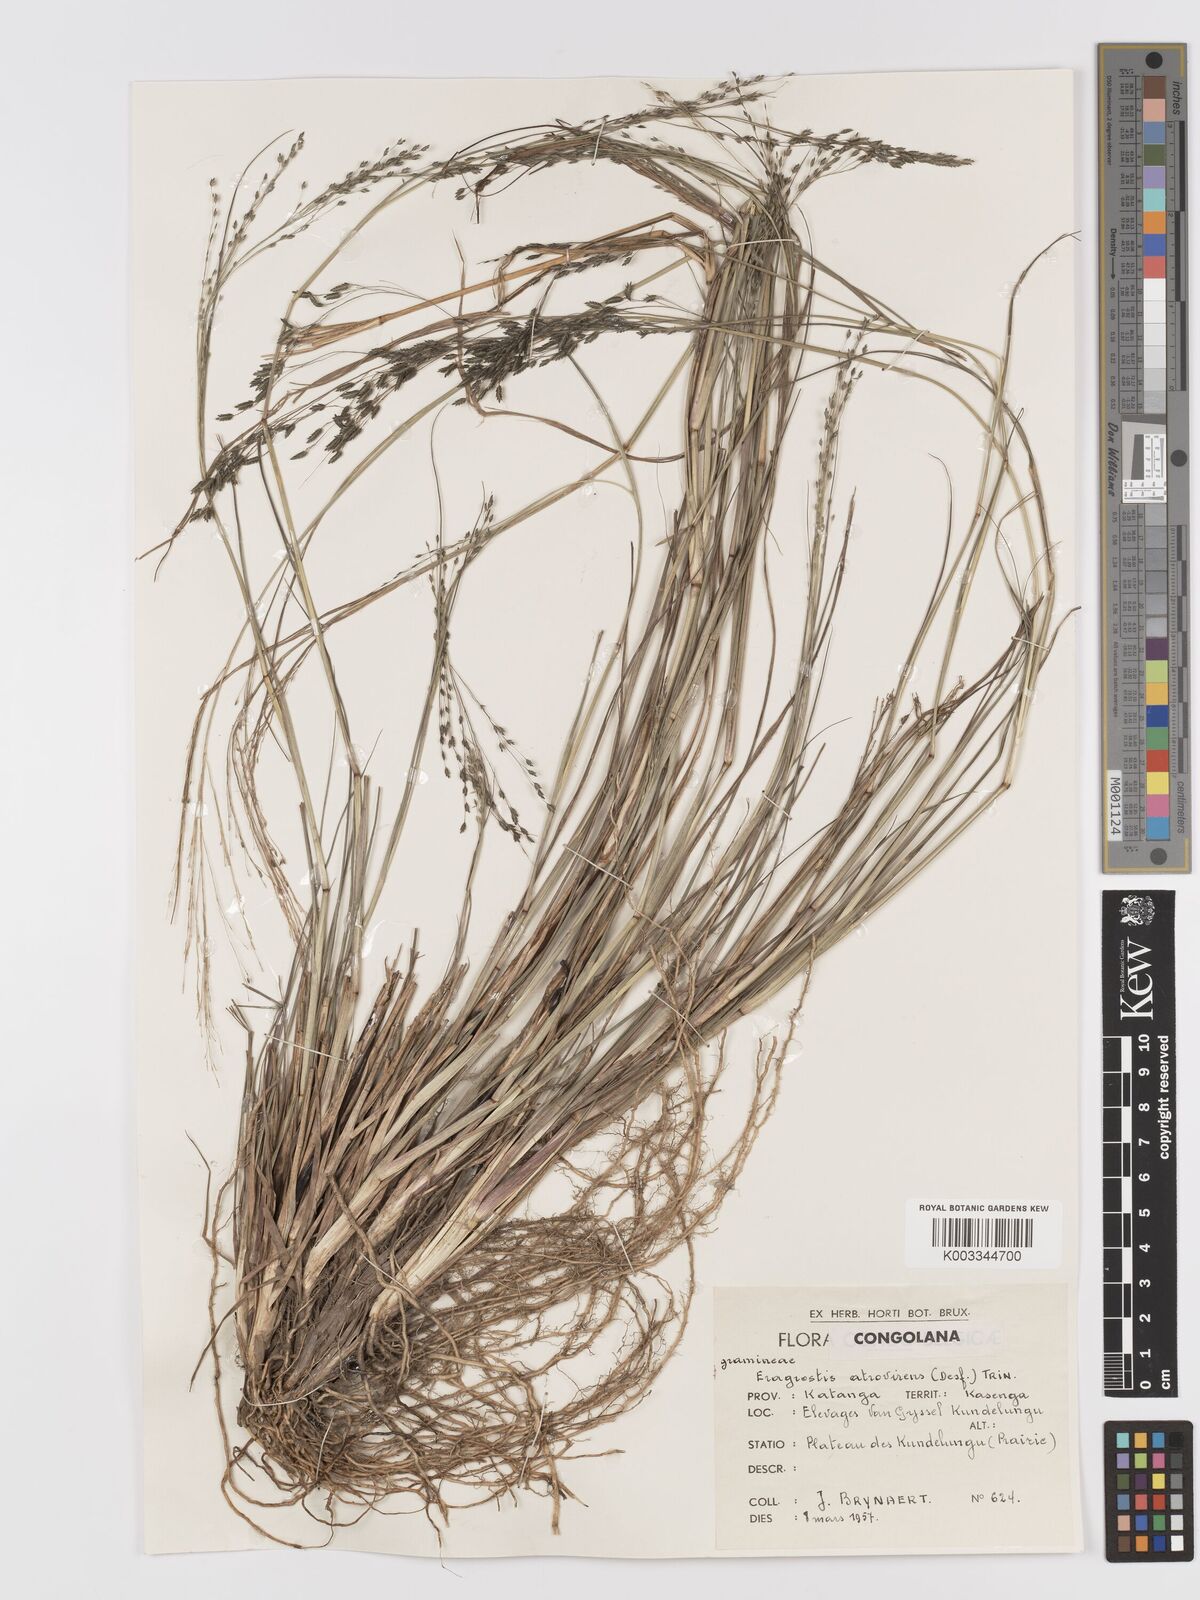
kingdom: Plantae
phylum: Tracheophyta
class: Liliopsida
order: Poales
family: Poaceae
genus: Eragrostis
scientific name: Eragrostis atrovirens
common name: Thalia lovegrass
